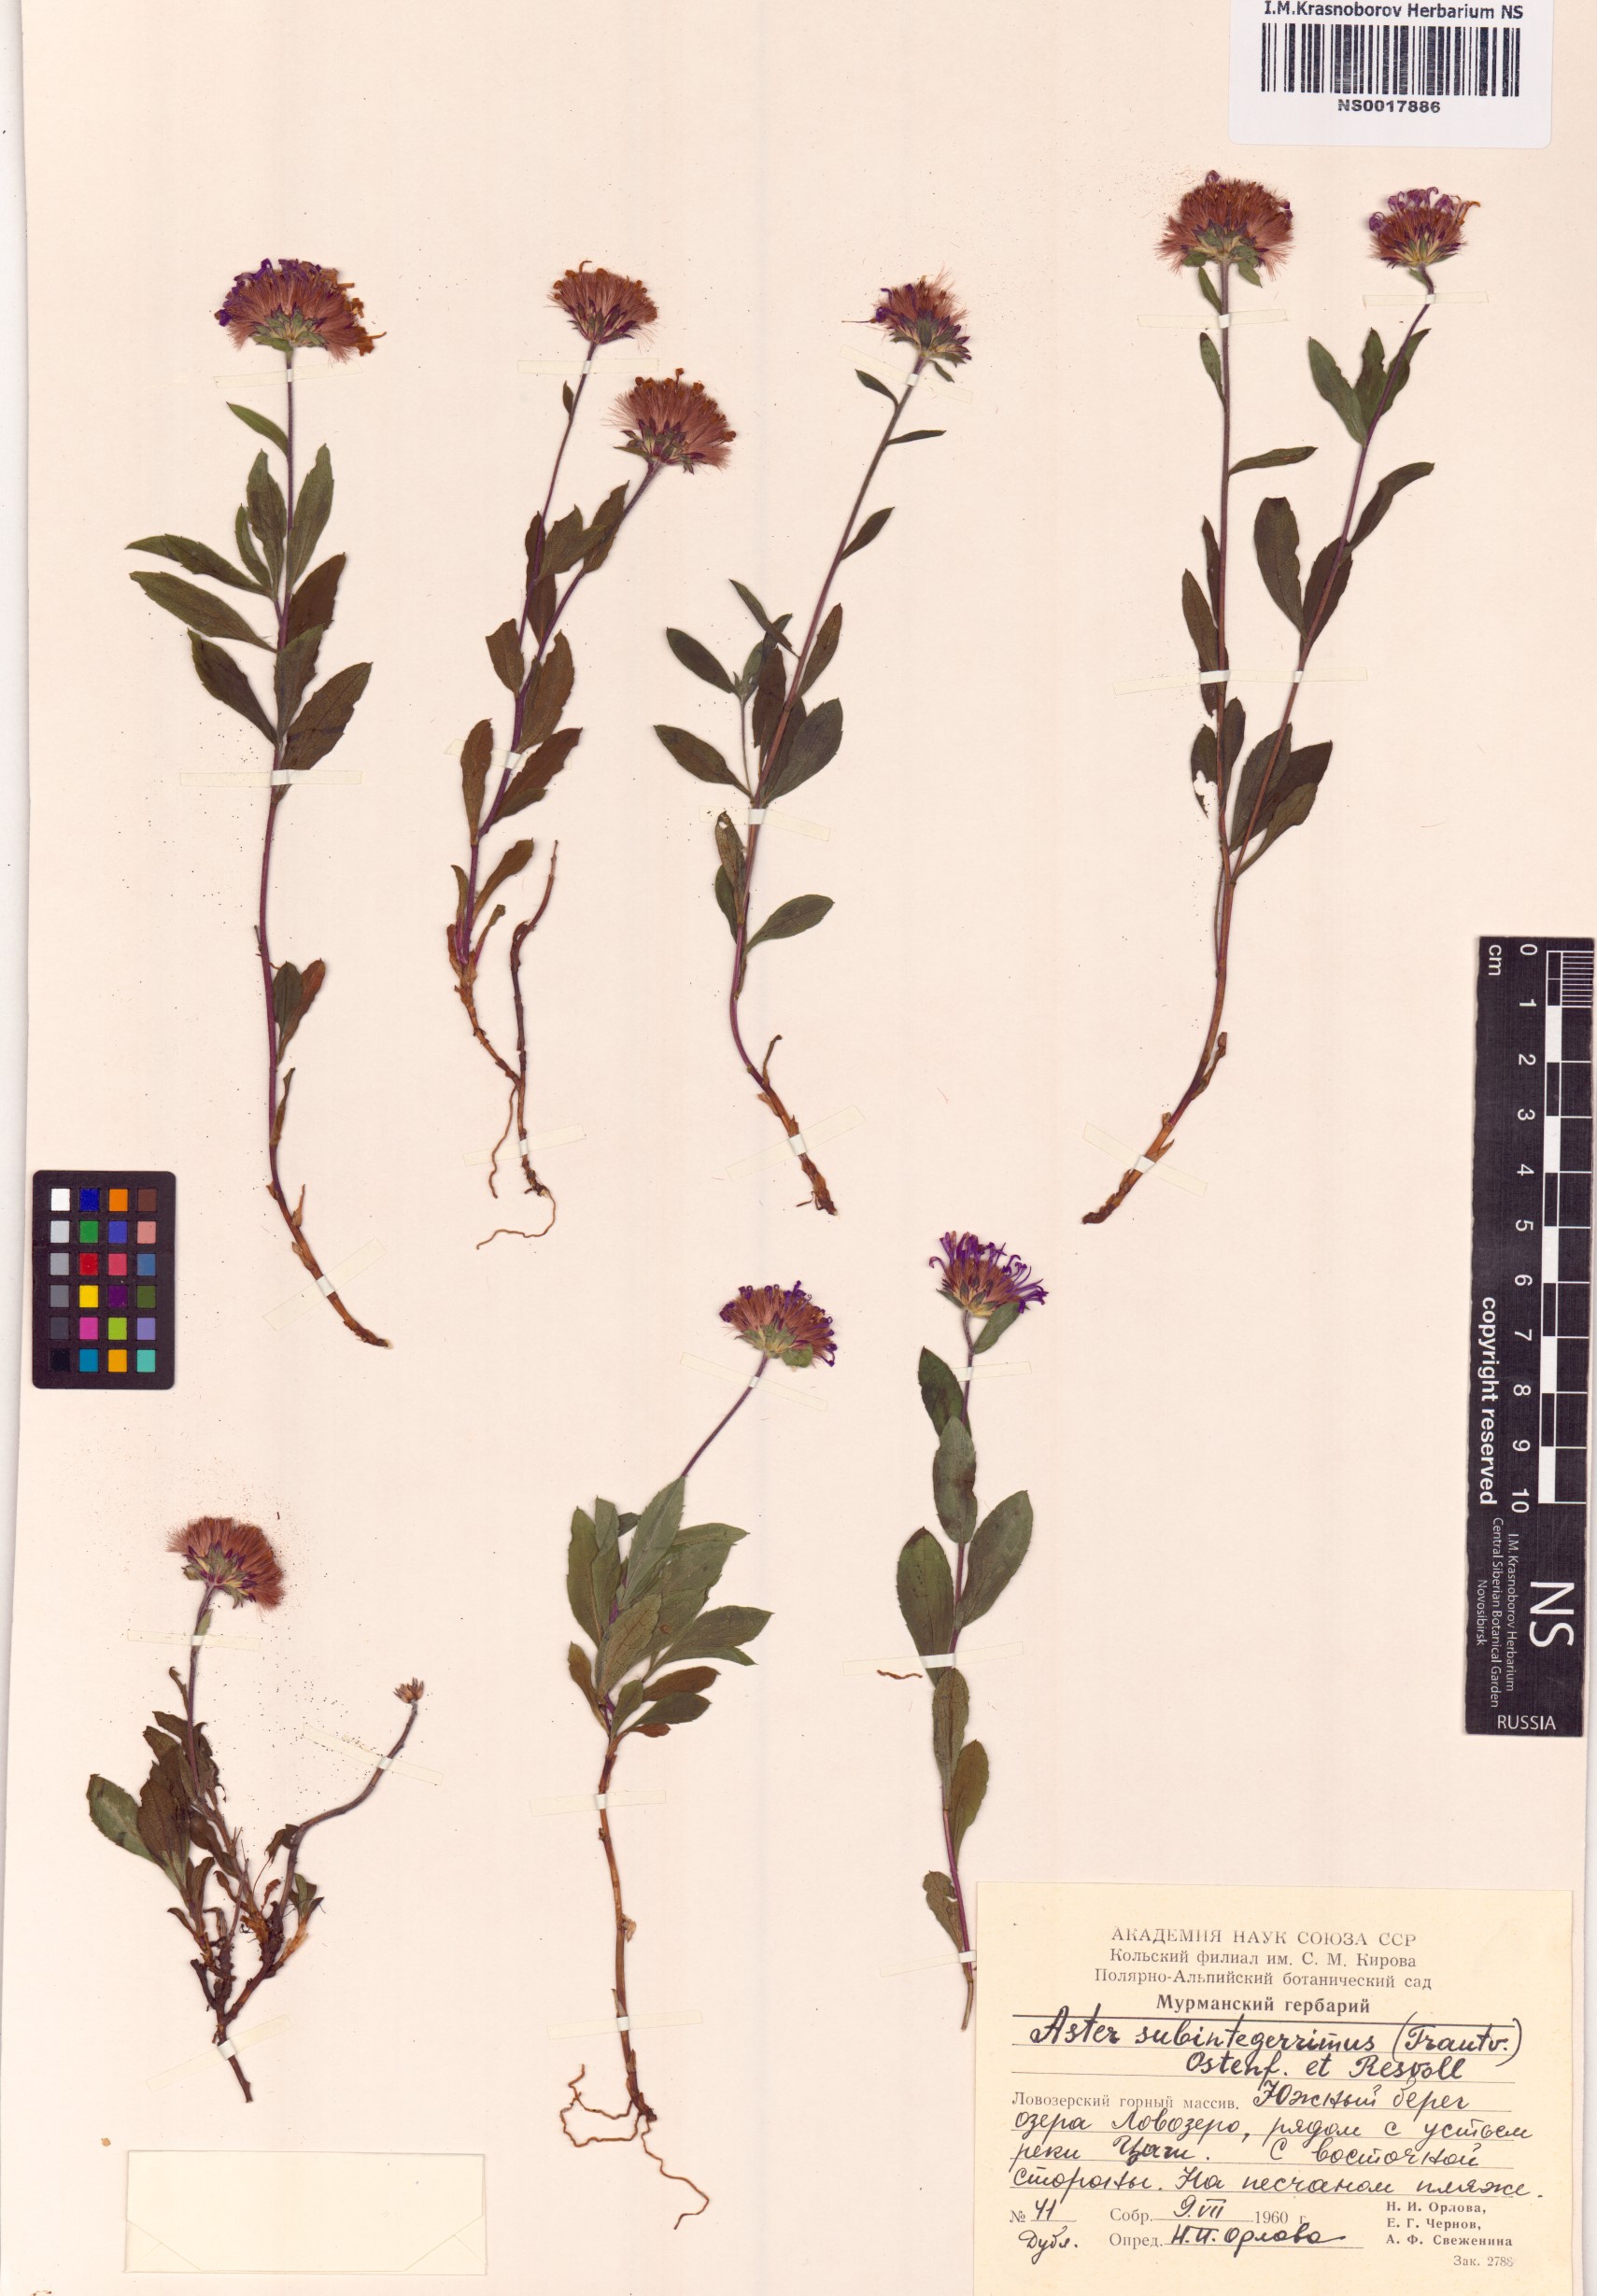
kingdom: Plantae
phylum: Tracheophyta
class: Magnoliopsida
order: Asterales
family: Asteraceae
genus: Eurybia
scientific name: Eurybia sibirica
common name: Arctic aster
